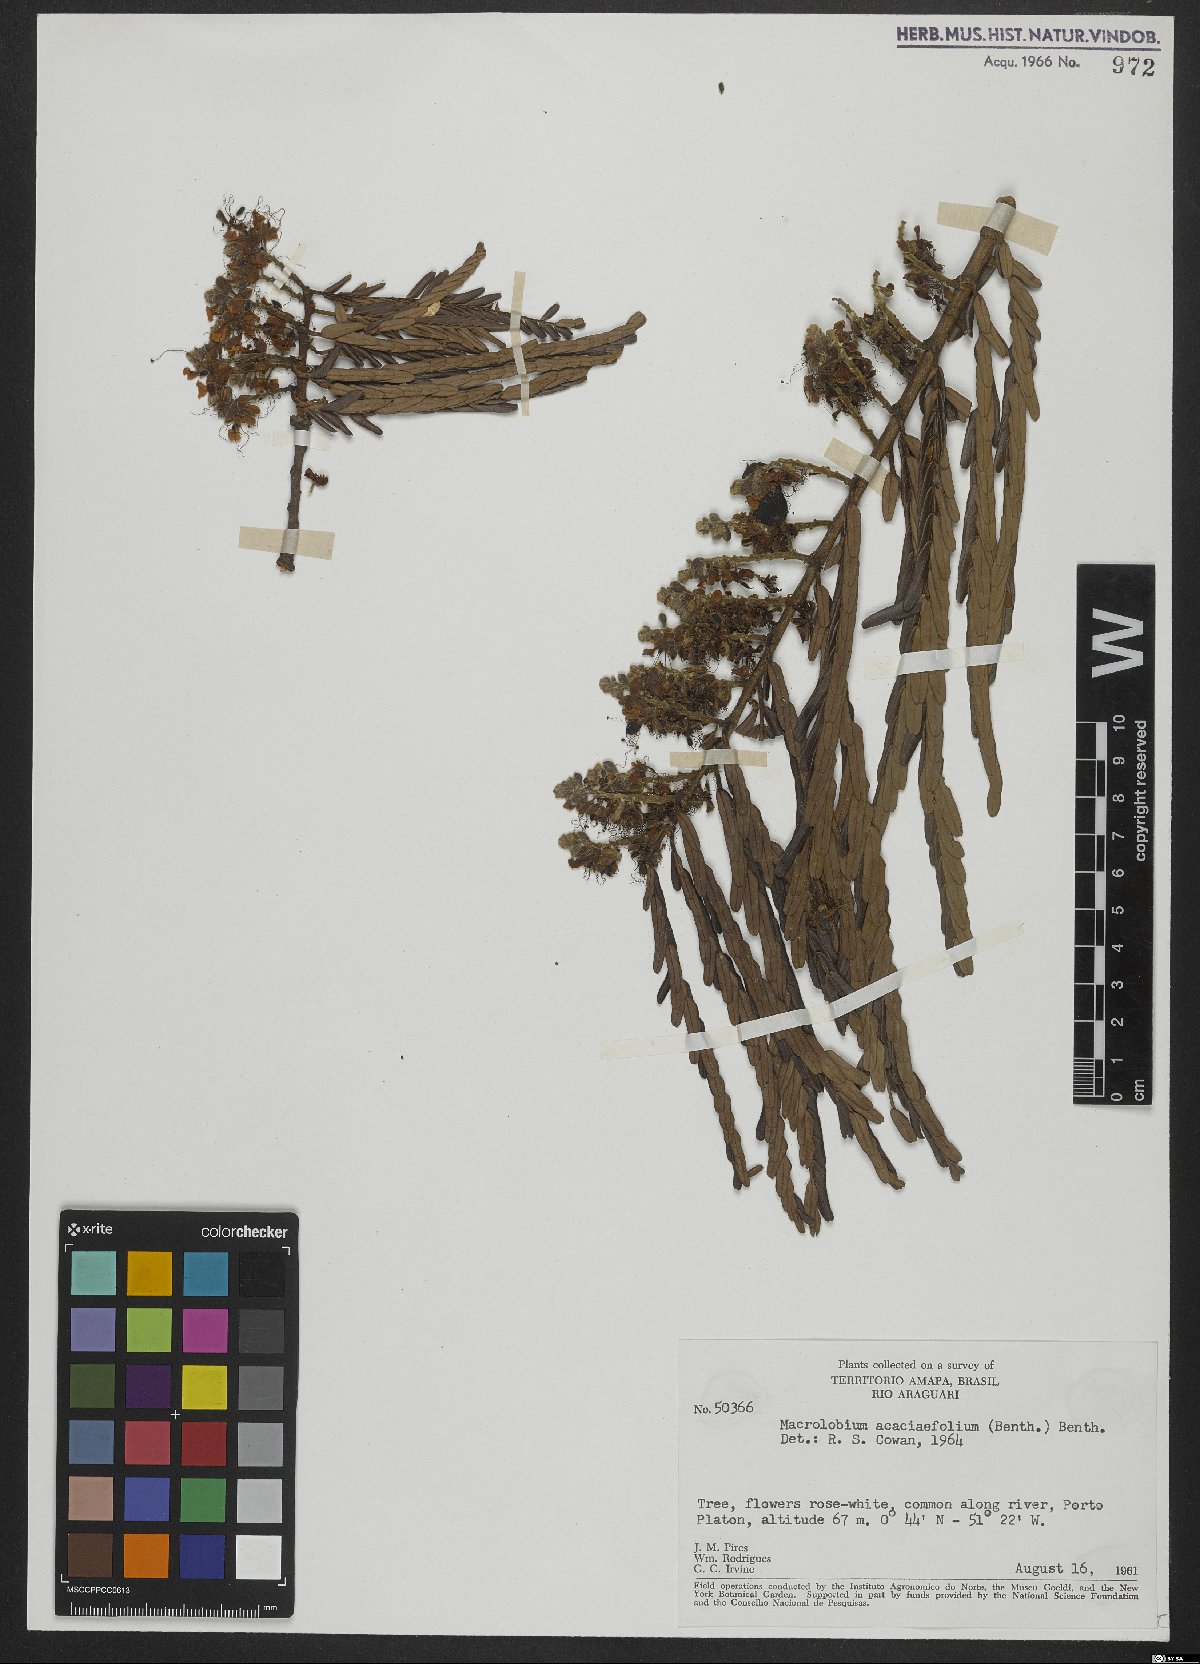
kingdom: Plantae
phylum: Tracheophyta
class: Magnoliopsida
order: Fabales
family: Fabaceae
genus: Macrolobium
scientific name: Macrolobium acaciifolium
